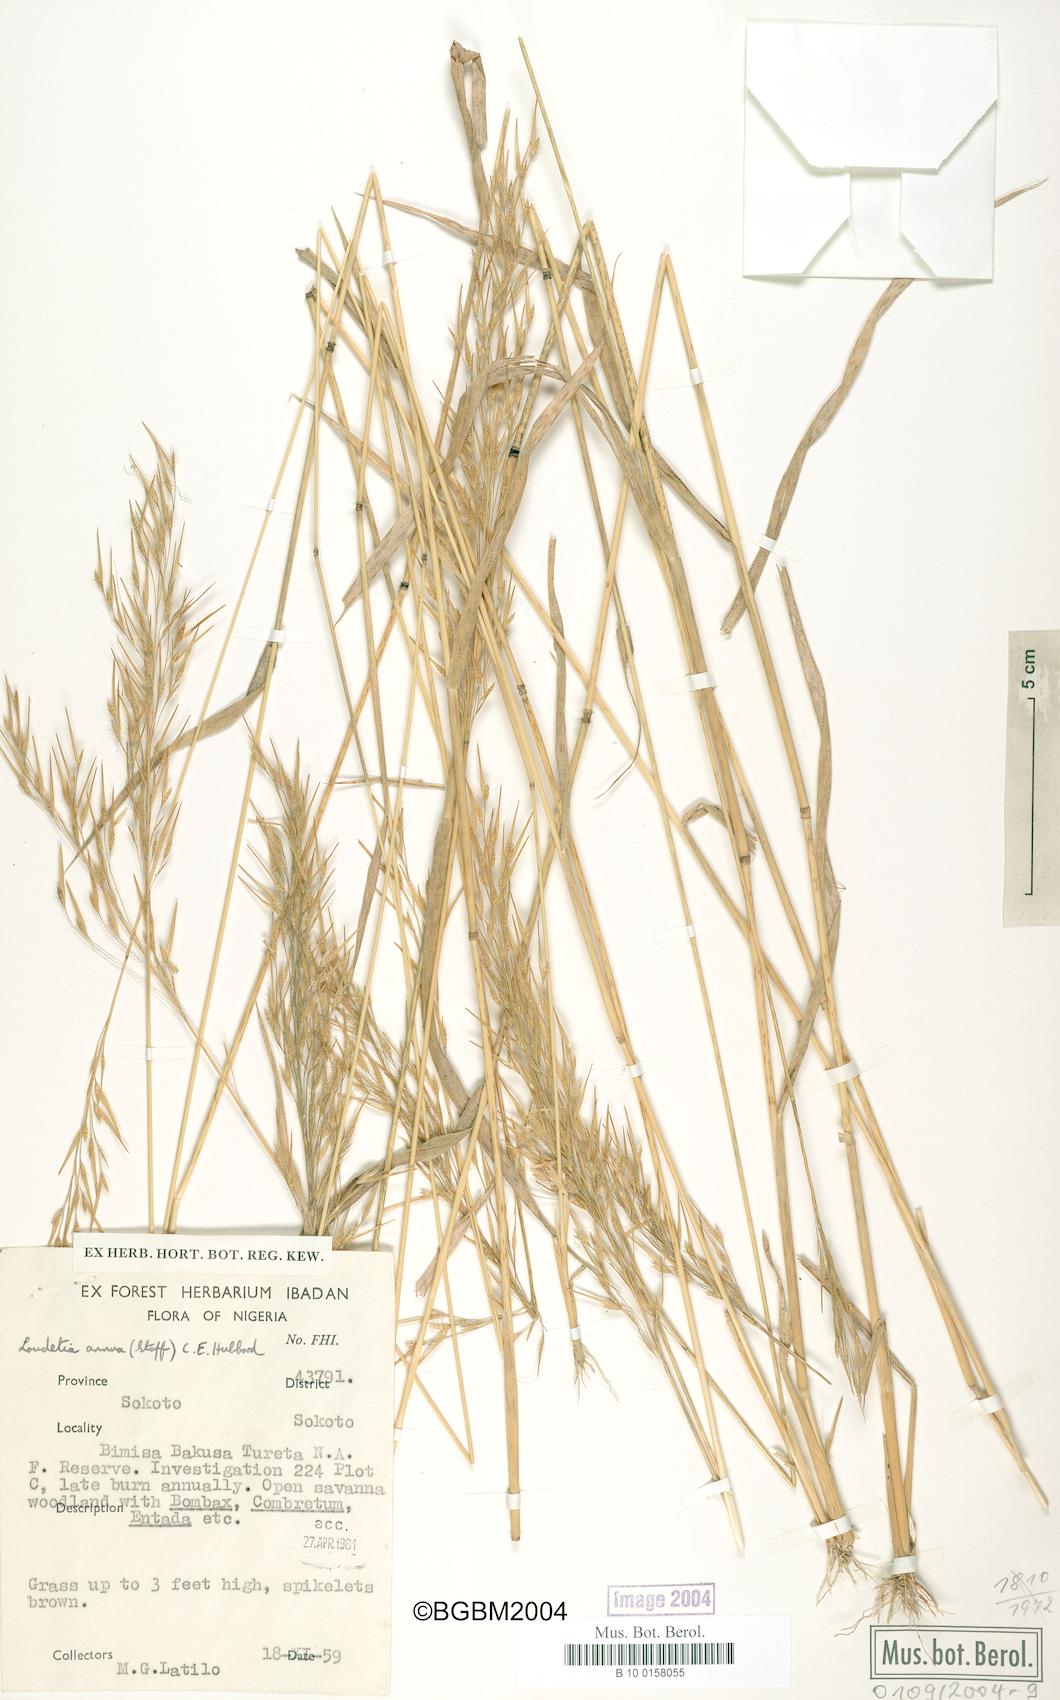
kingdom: Plantae
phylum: Tracheophyta
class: Liliopsida
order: Poales
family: Poaceae
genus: Loudetia
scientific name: Loudetia annua
